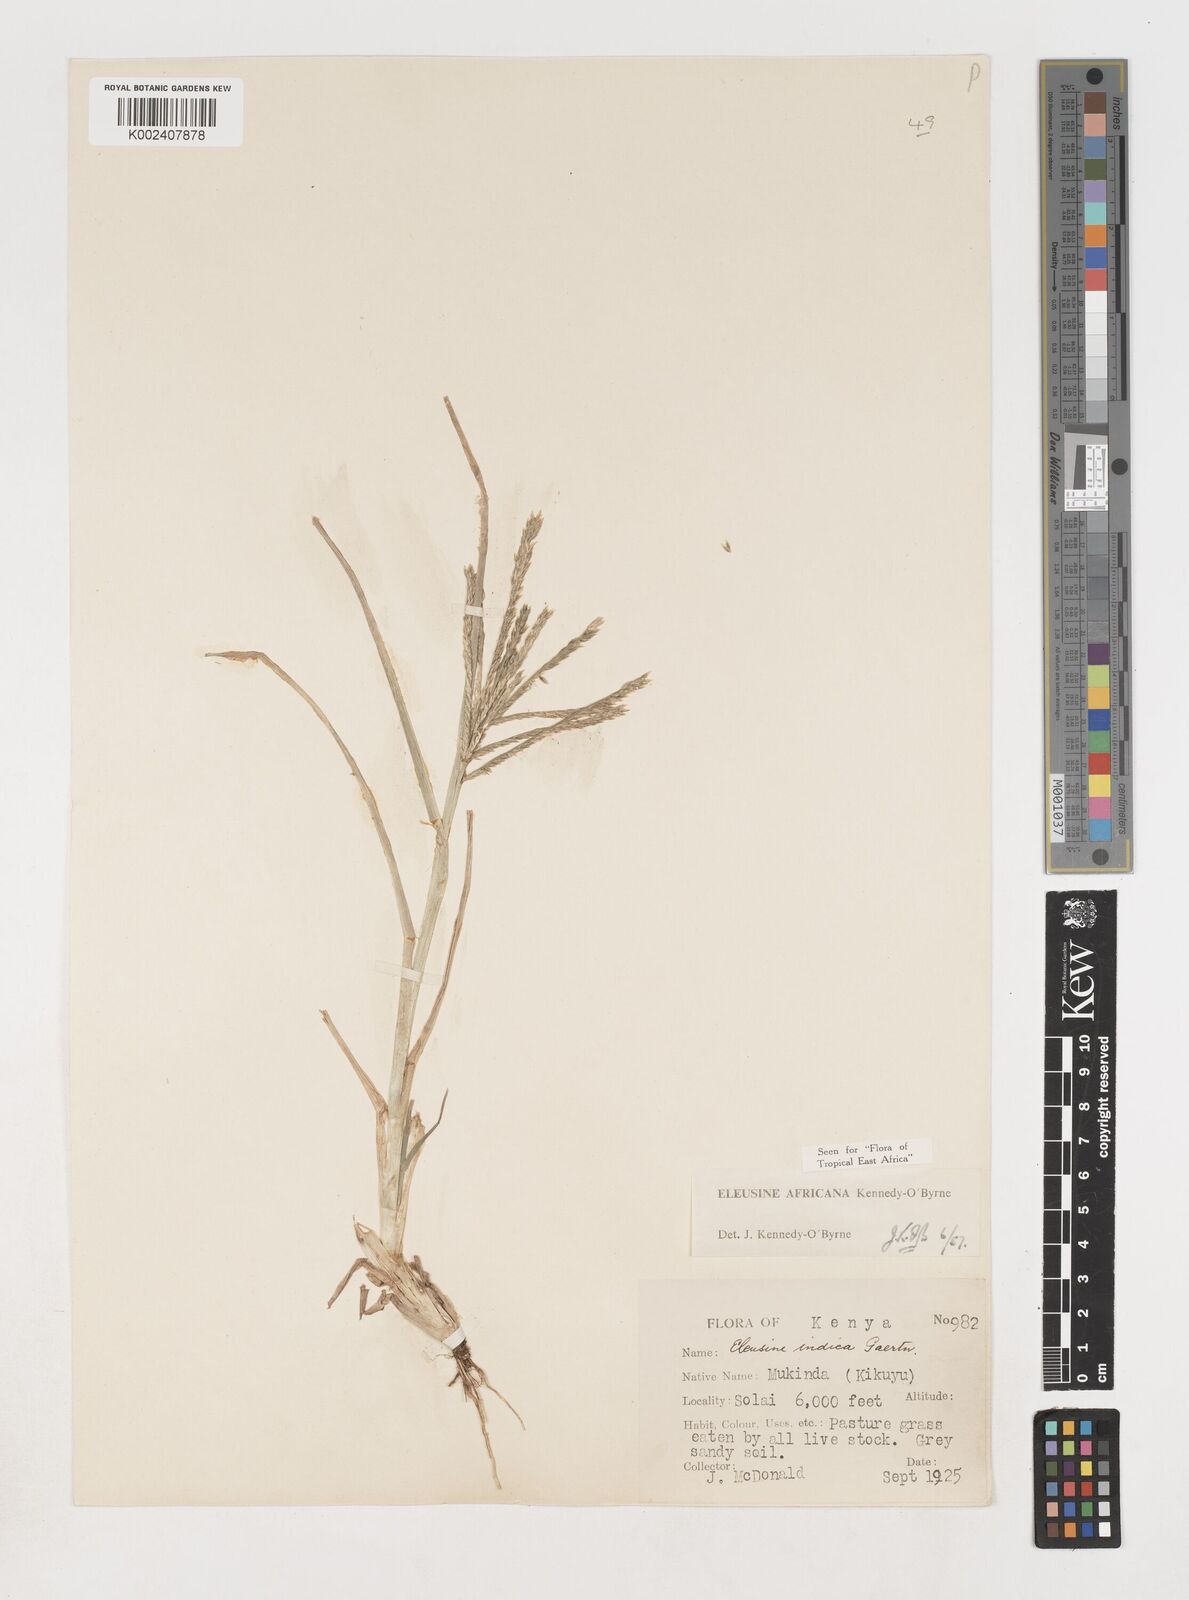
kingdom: Plantae
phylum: Tracheophyta
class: Liliopsida
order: Poales
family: Poaceae
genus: Eleusine
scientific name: Eleusine africana
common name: Wild african finger millet
